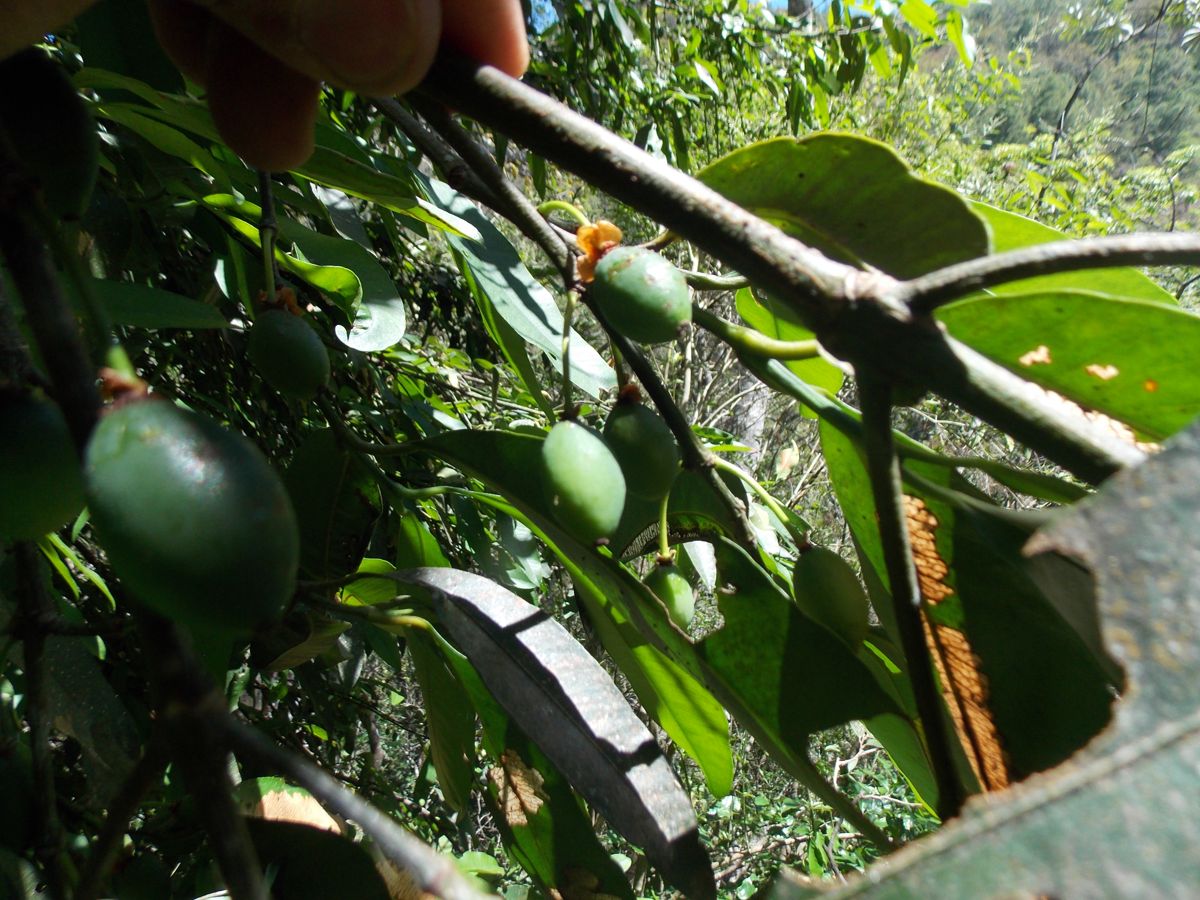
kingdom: Plantae
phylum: Tracheophyta
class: Magnoliopsida
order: Malpighiales
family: Clusiaceae
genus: Garcinia
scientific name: Garcinia intermedia
